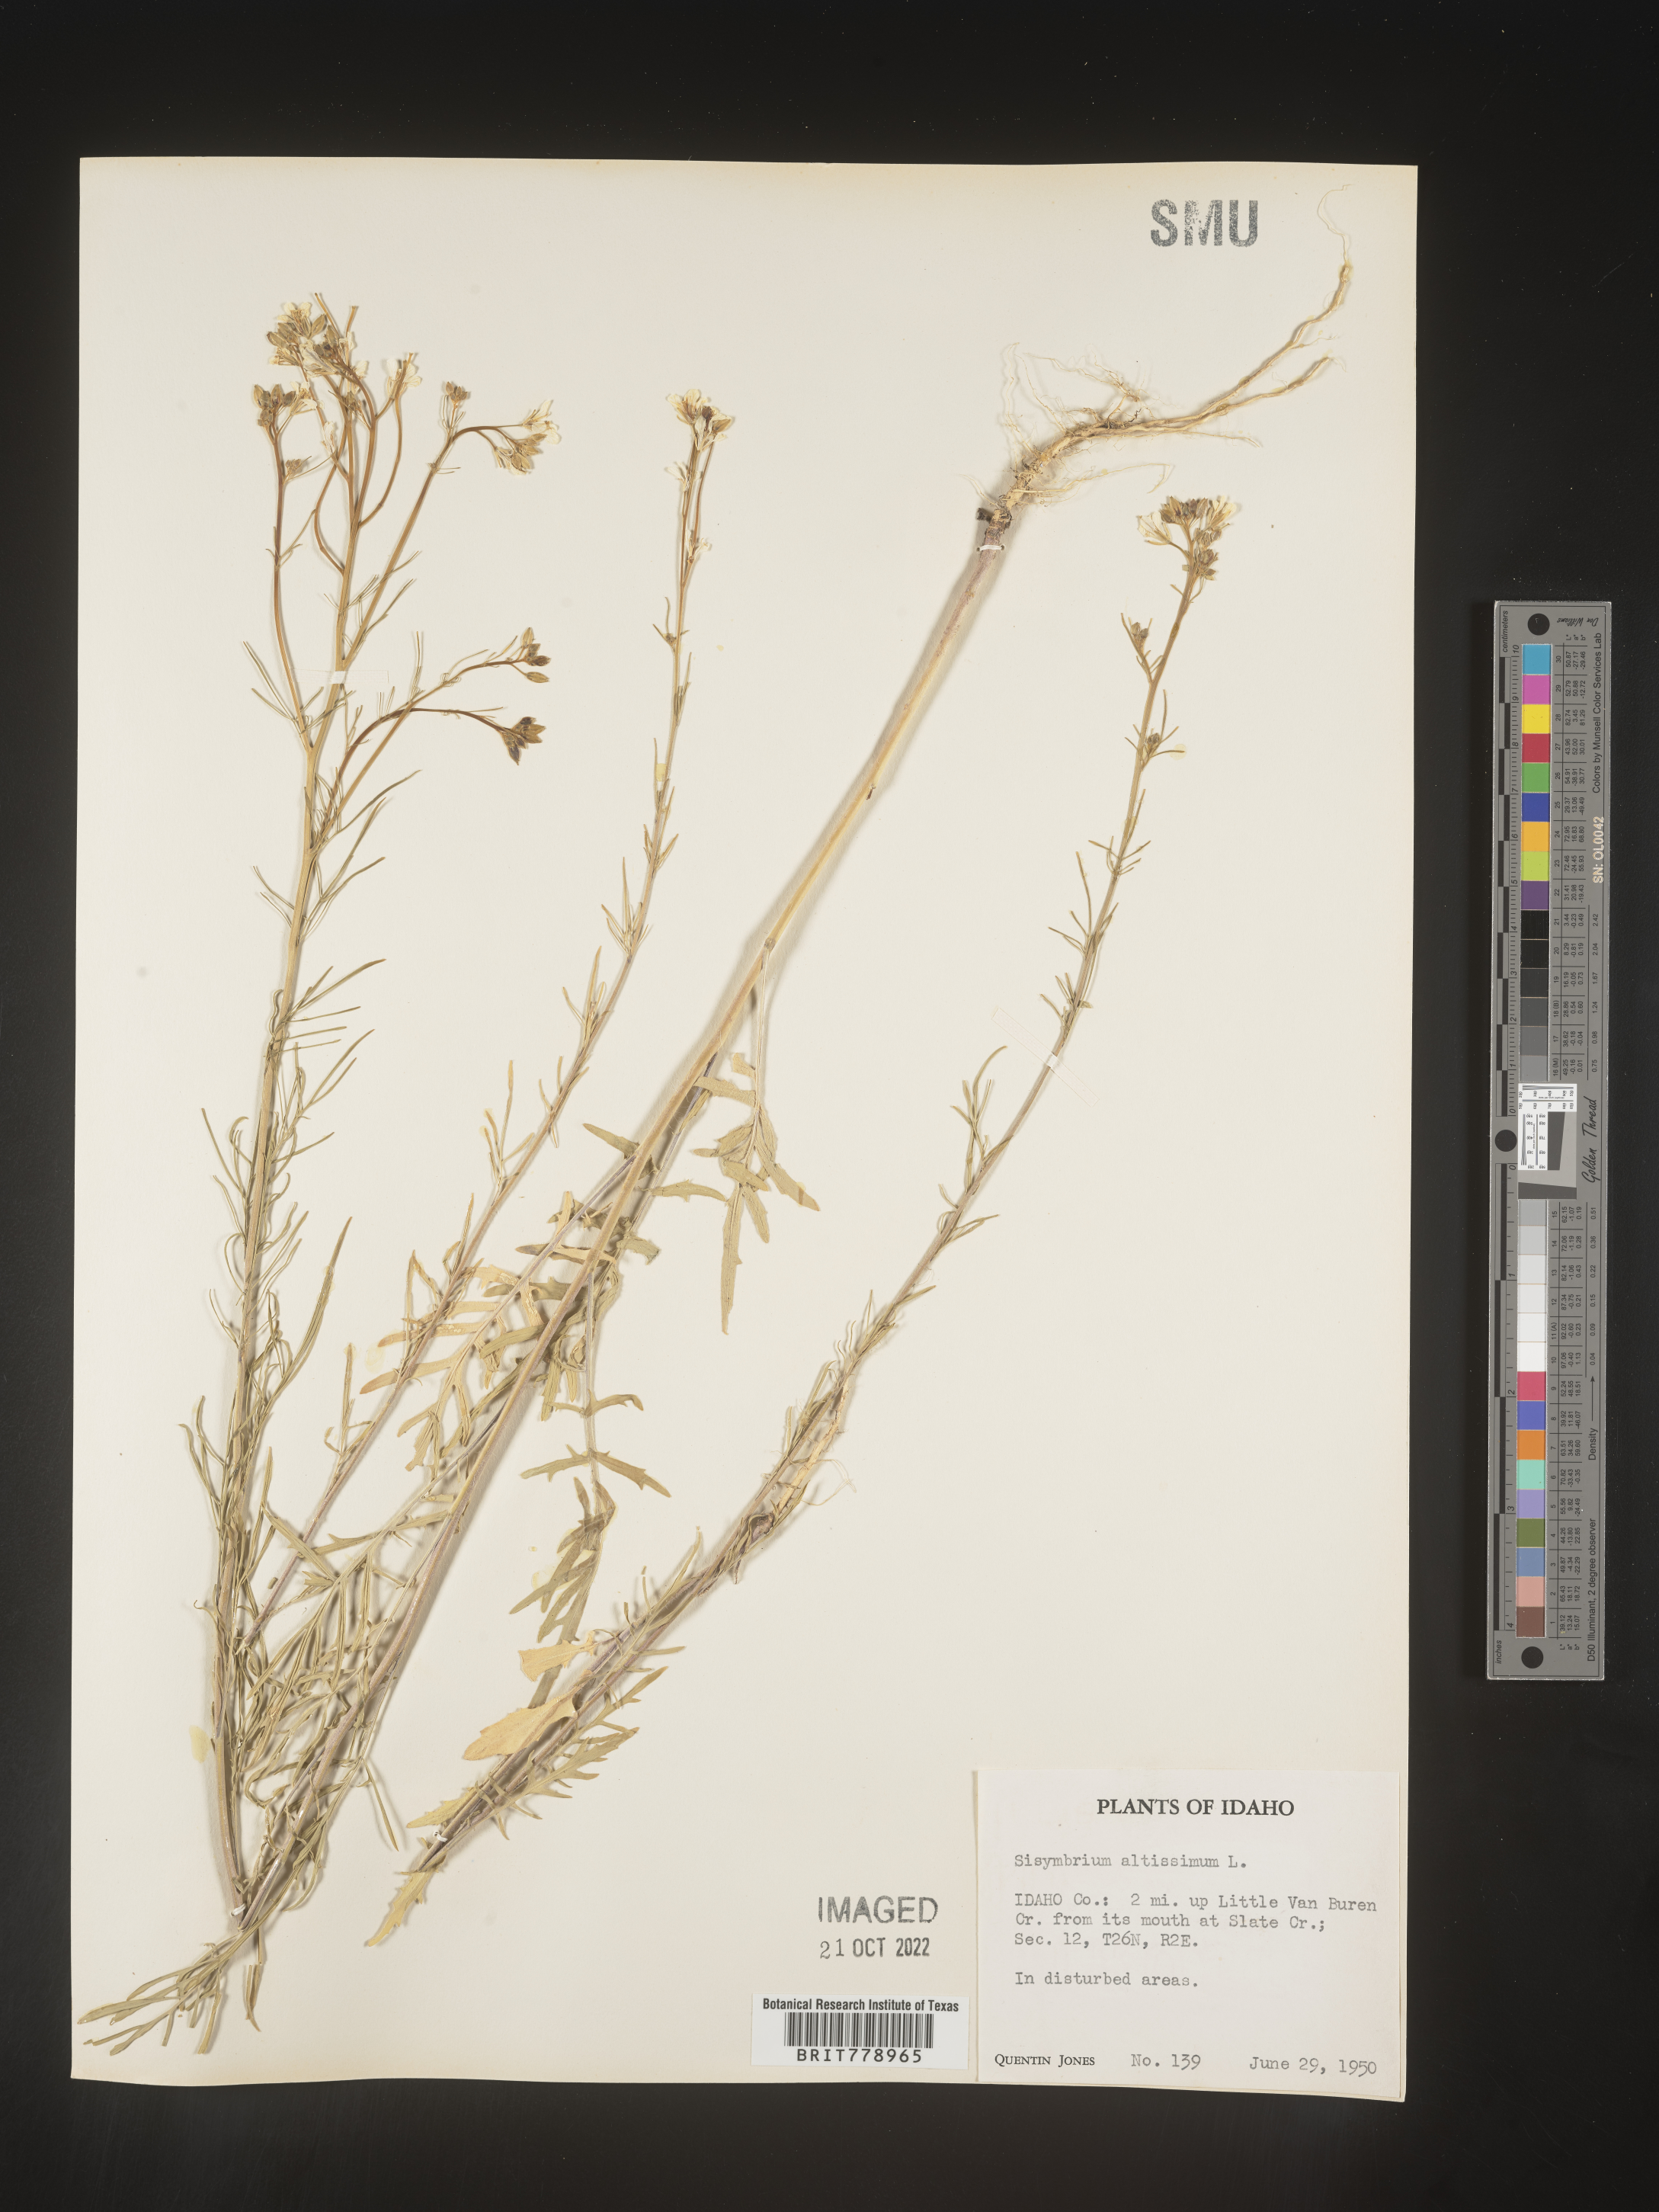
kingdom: Plantae
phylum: Tracheophyta
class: Magnoliopsida
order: Brassicales
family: Brassicaceae
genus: Sisymbrium
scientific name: Sisymbrium altissimum
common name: Tall rocket
